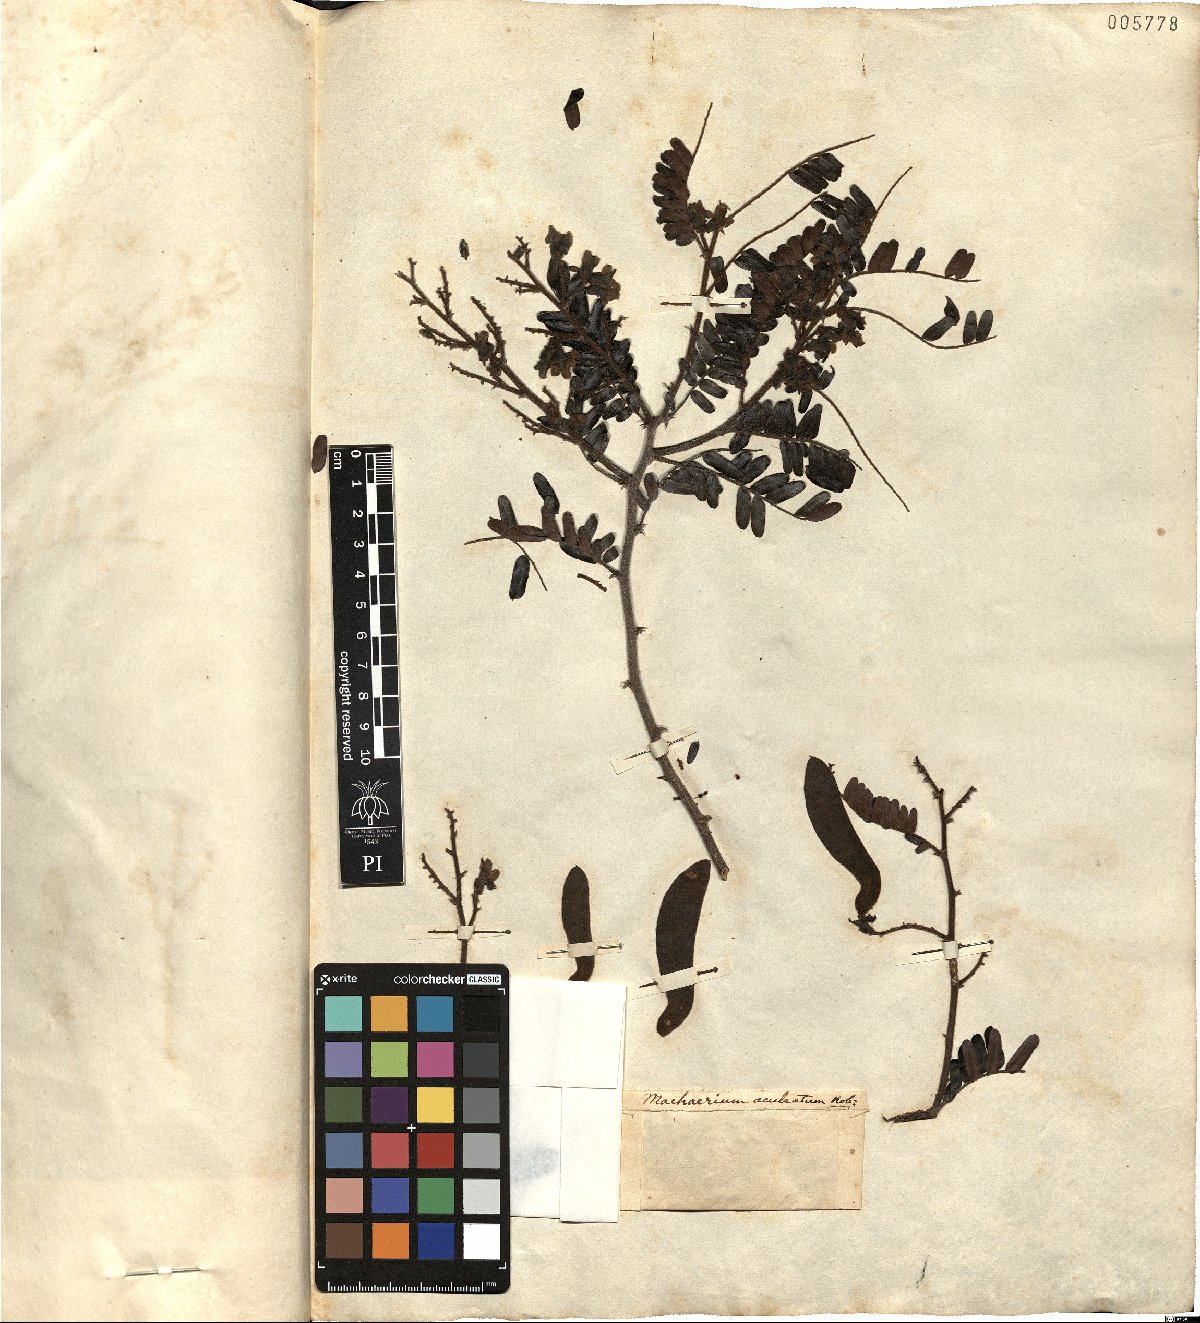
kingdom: Plantae
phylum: Tracheophyta
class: Magnoliopsida
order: Fabales
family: Fabaceae
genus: Machaerium
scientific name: Machaerium isadelphum
